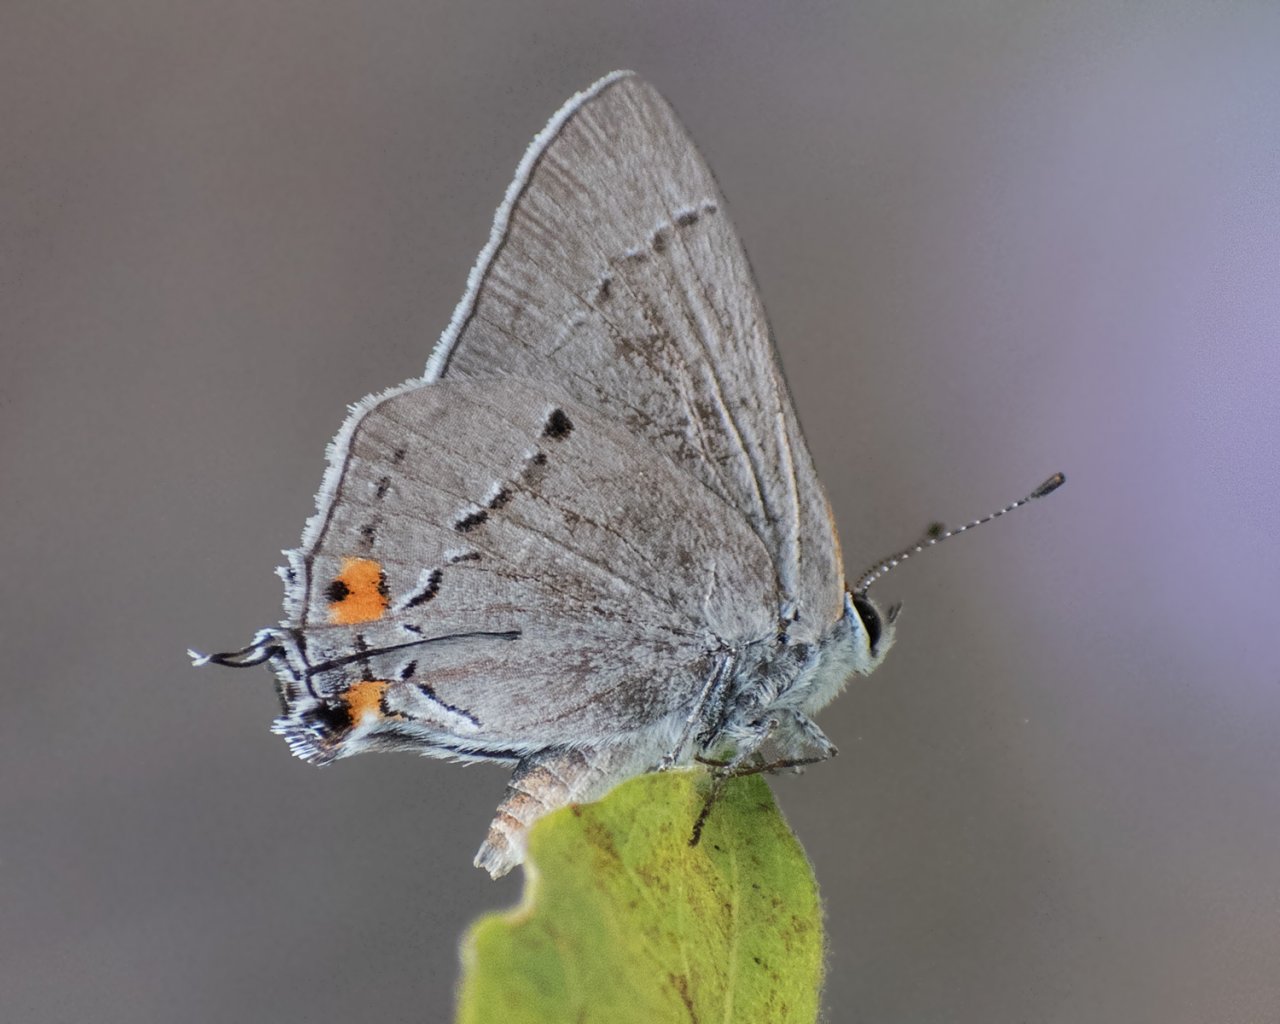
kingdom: Animalia
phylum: Arthropoda
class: Insecta
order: Lepidoptera
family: Lycaenidae
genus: Strymon
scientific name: Strymon melinus
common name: Gray Hairstreak
